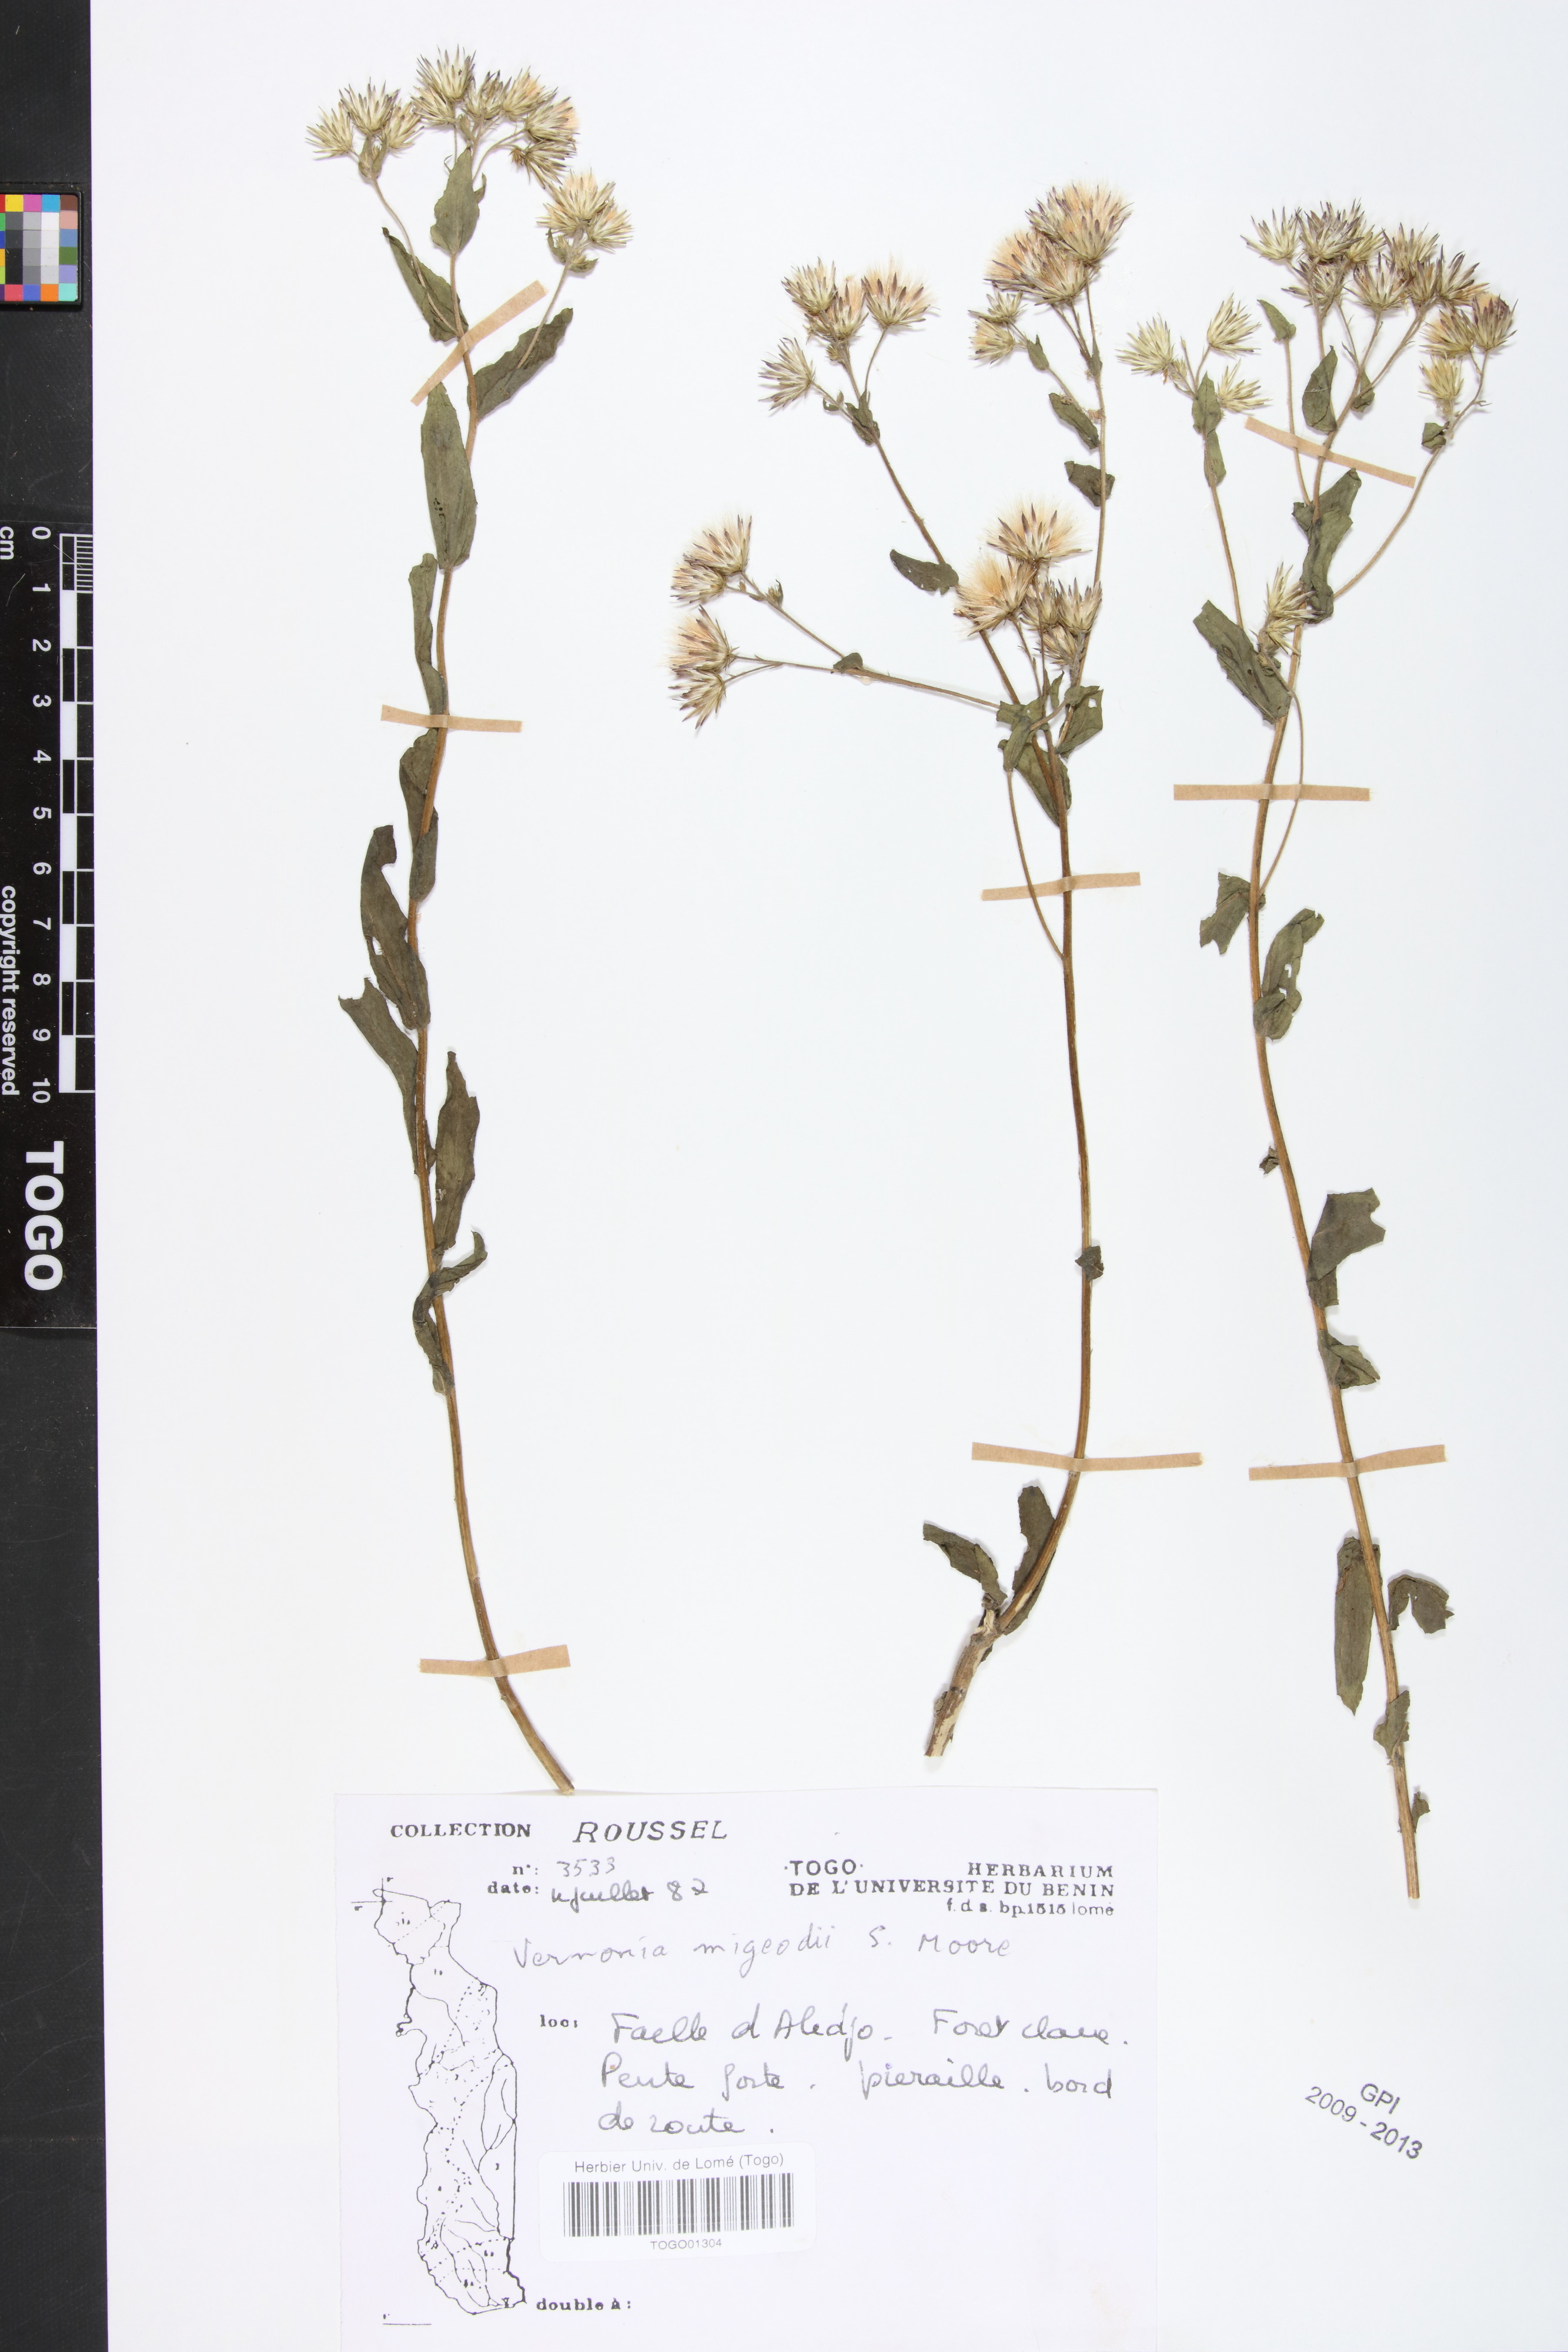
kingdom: Plantae
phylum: Tracheophyta
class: Magnoliopsida
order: Asterales
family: Asteraceae
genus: Vernoniastrum
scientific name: Vernoniastrum migeodii
